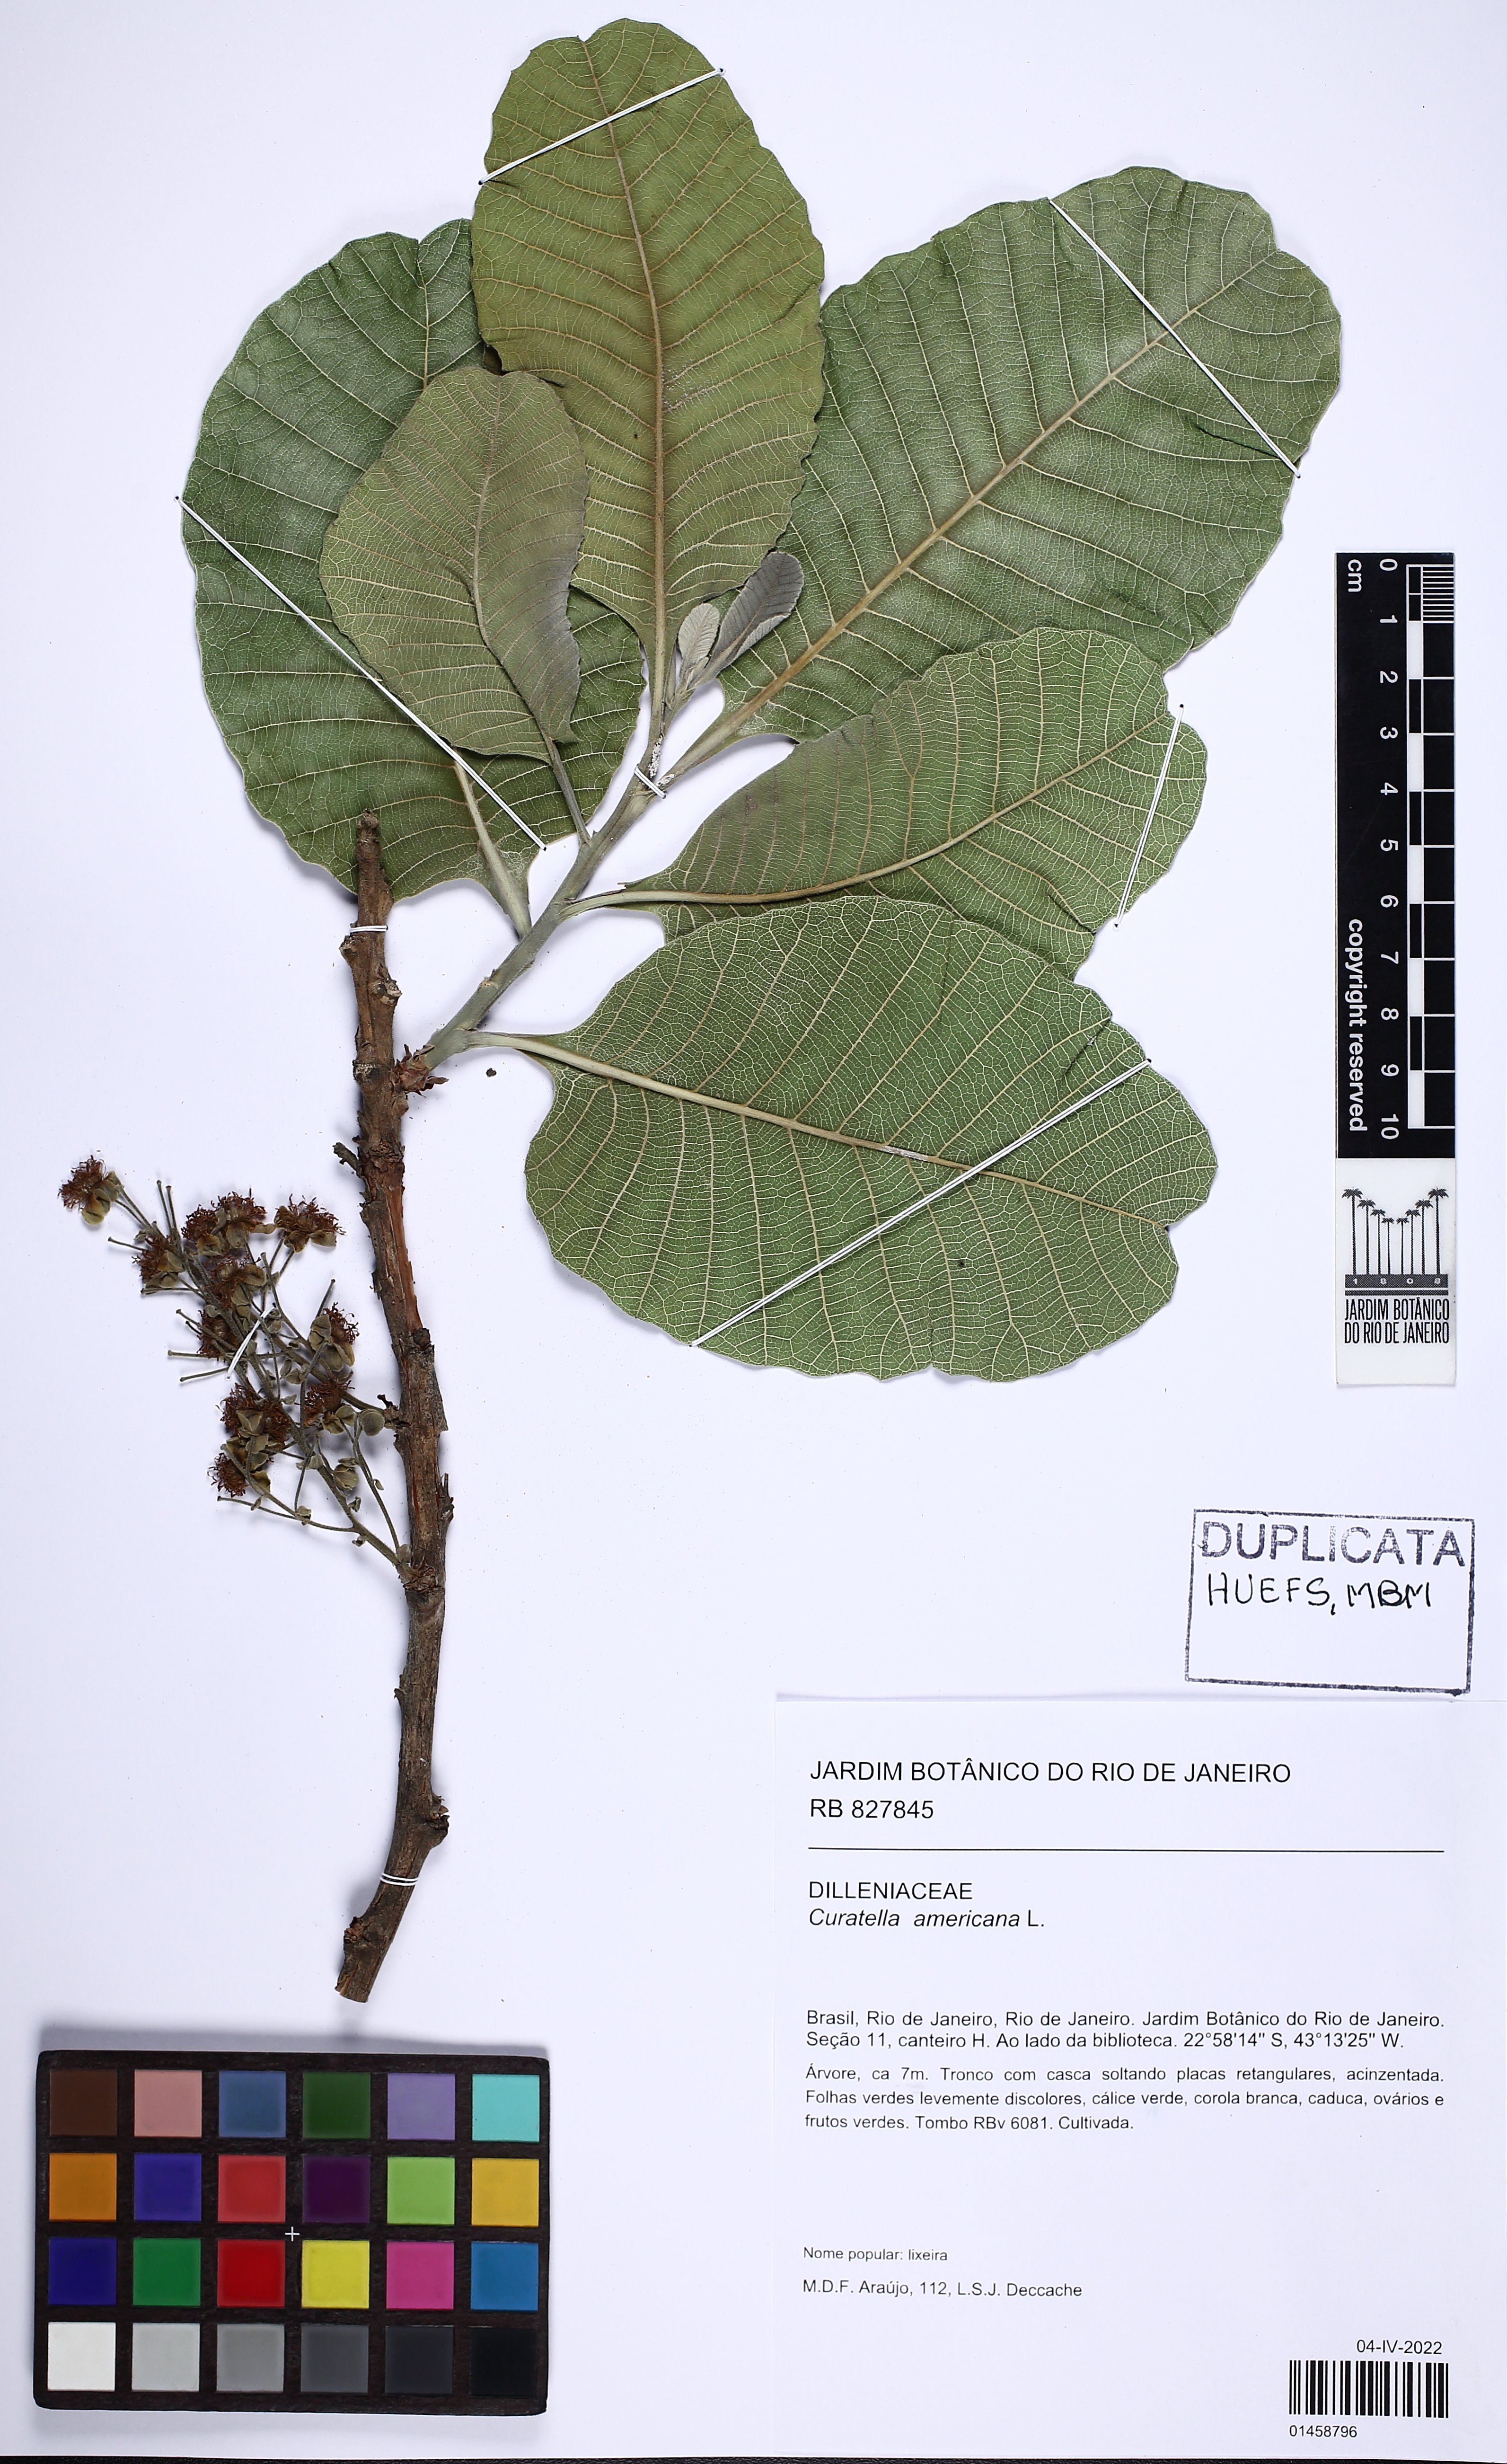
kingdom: Plantae
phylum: Tracheophyta
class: Magnoliopsida
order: Dilleniales
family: Dilleniaceae
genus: Curatella
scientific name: Curatella americana
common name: Sandpaper tree
